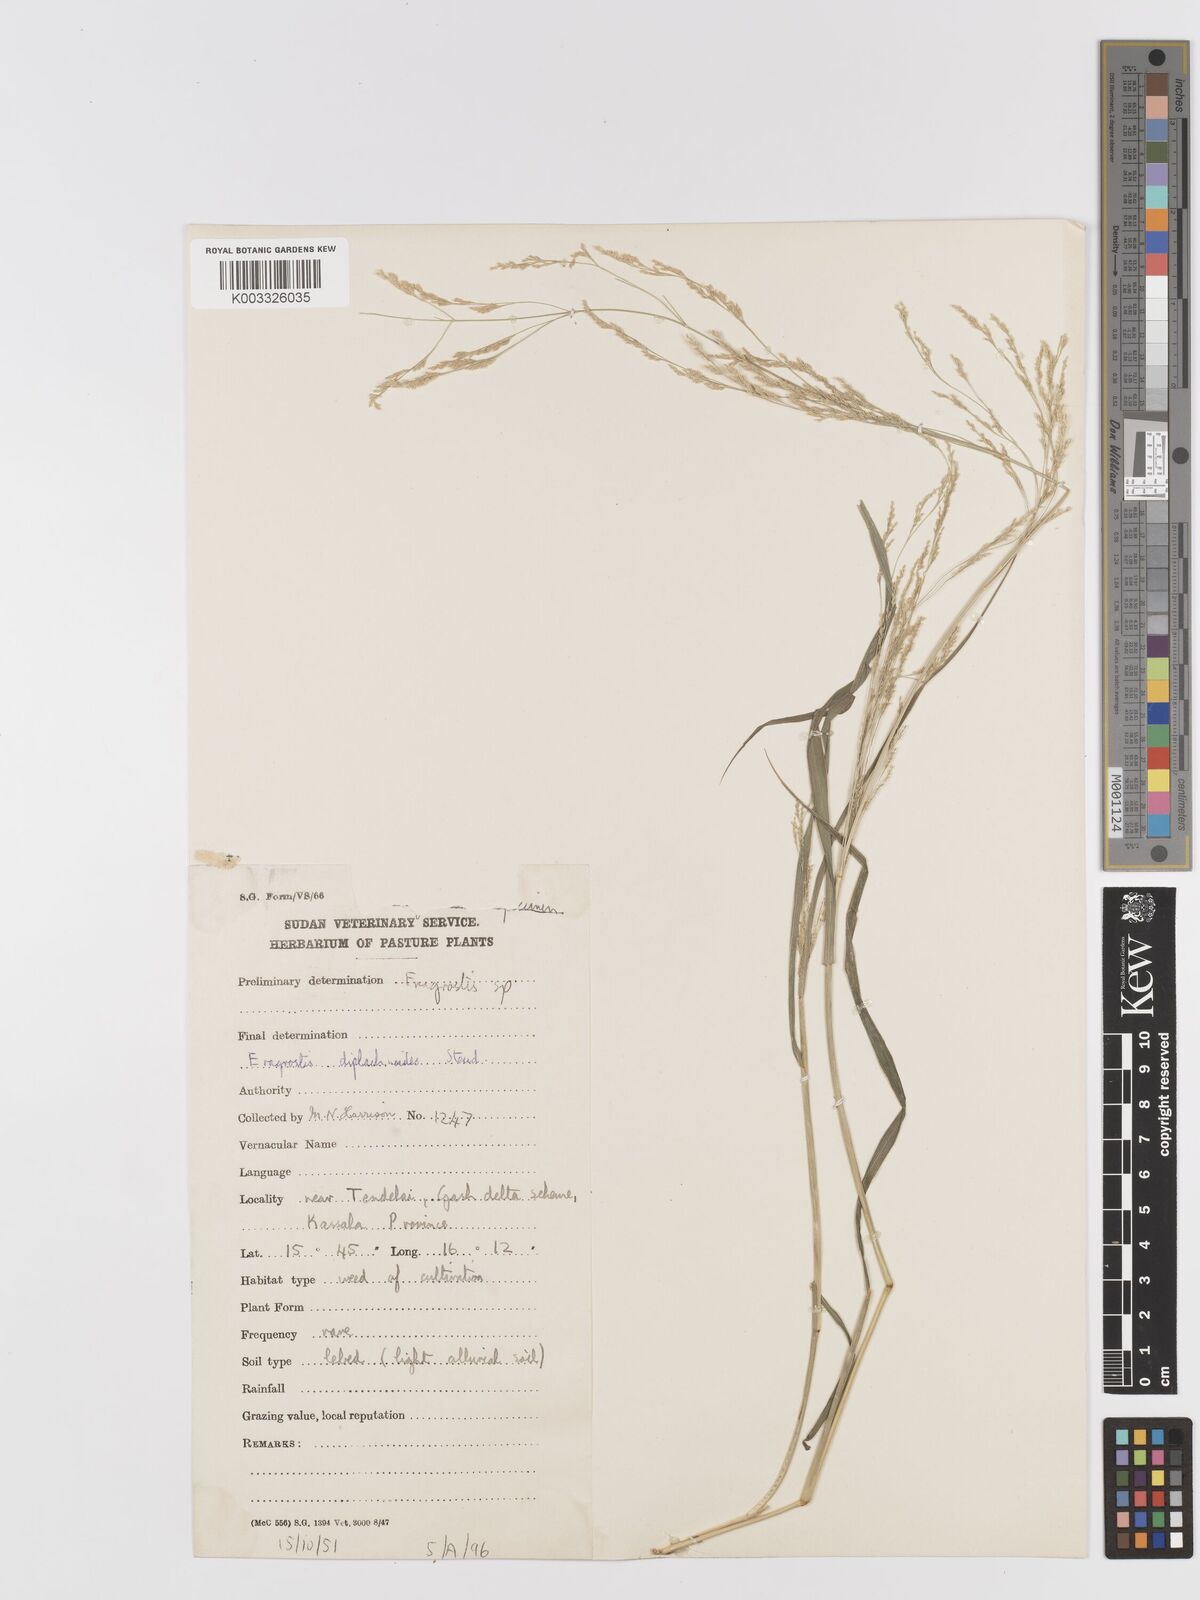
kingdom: Plantae
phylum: Tracheophyta
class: Liliopsida
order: Poales
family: Poaceae
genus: Eragrostis
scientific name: Eragrostis japonica
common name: Pond lovegrass
